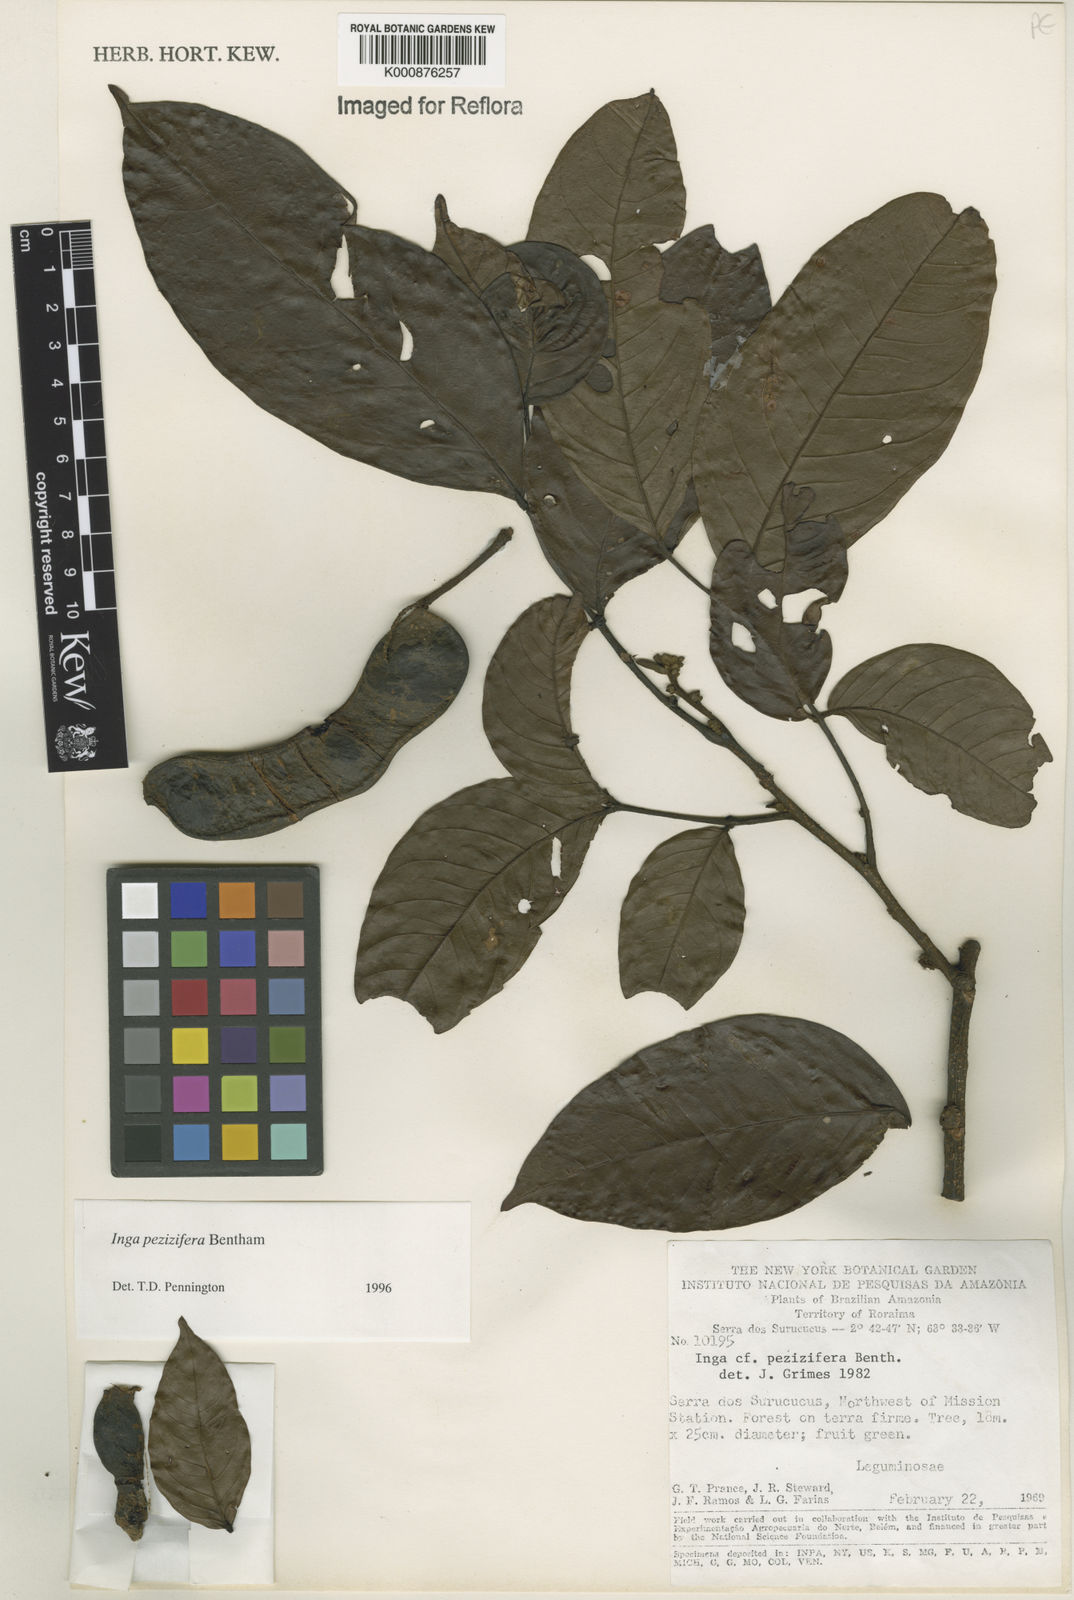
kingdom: Plantae
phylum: Tracheophyta
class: Magnoliopsida
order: Fabales
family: Fabaceae
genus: Inga
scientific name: Inga pezizifera
